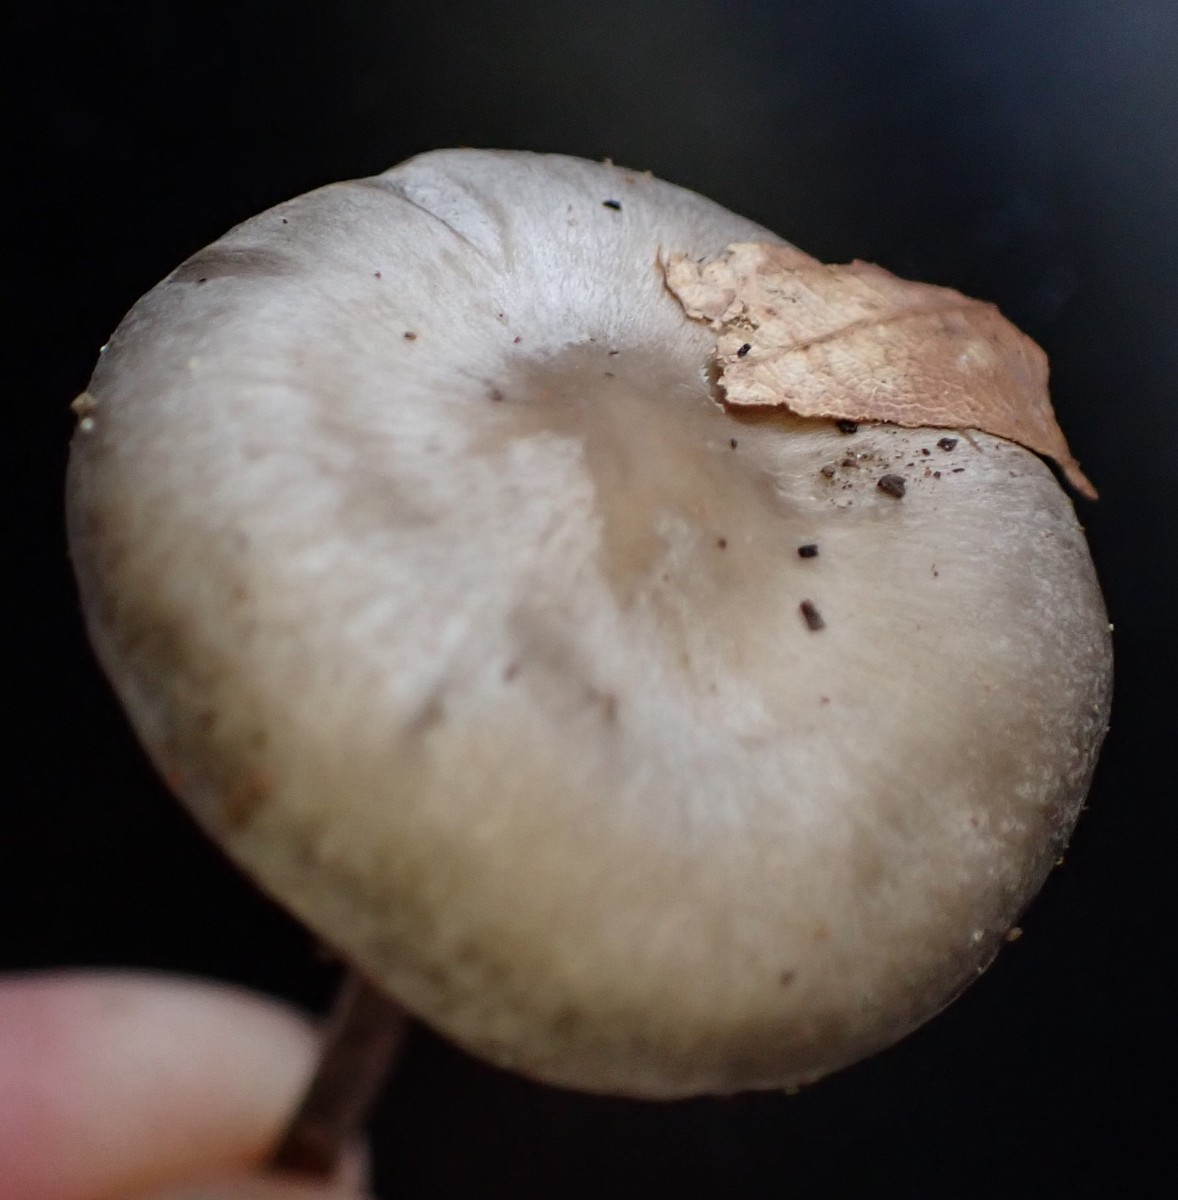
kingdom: Fungi
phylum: Basidiomycota
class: Agaricomycetes
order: Agaricales
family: Lyophyllaceae
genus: Tephrocybe
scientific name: Tephrocybe
